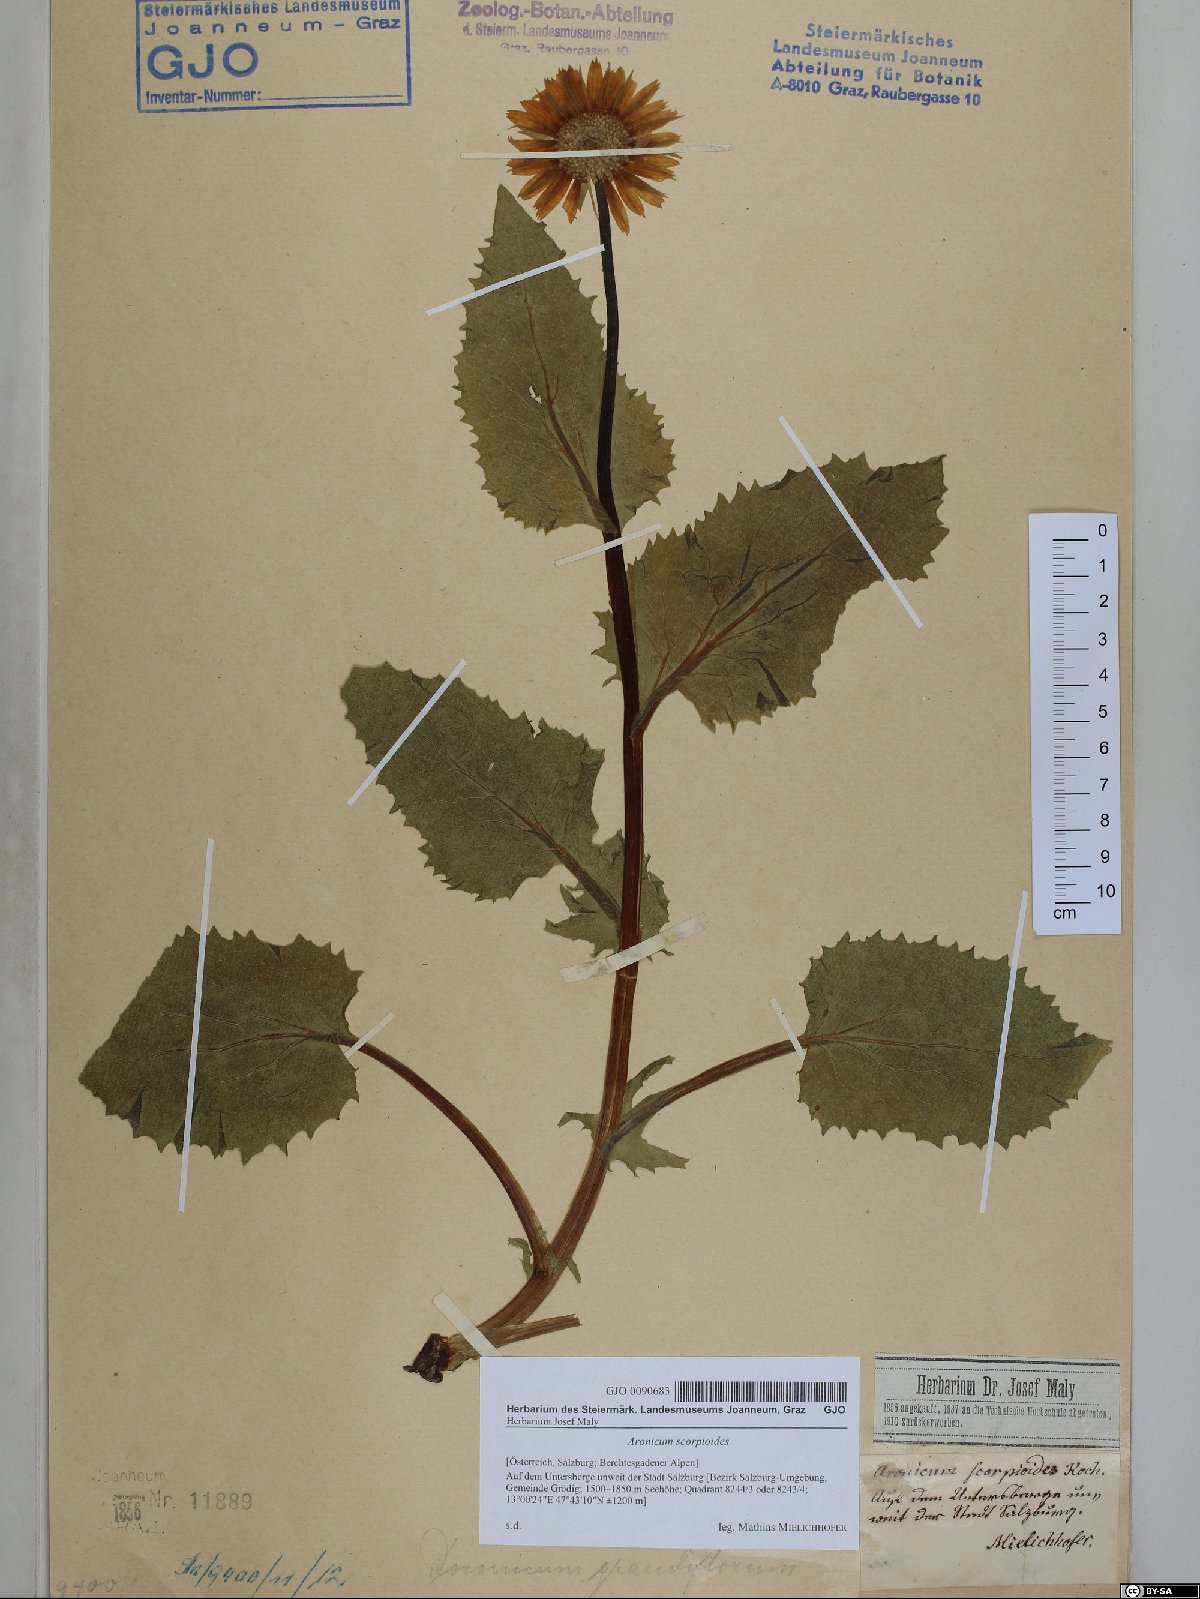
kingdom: Plantae
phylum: Tracheophyta
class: Magnoliopsida
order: Asterales
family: Asteraceae
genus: Doronicum
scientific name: Doronicum grandiflorum
